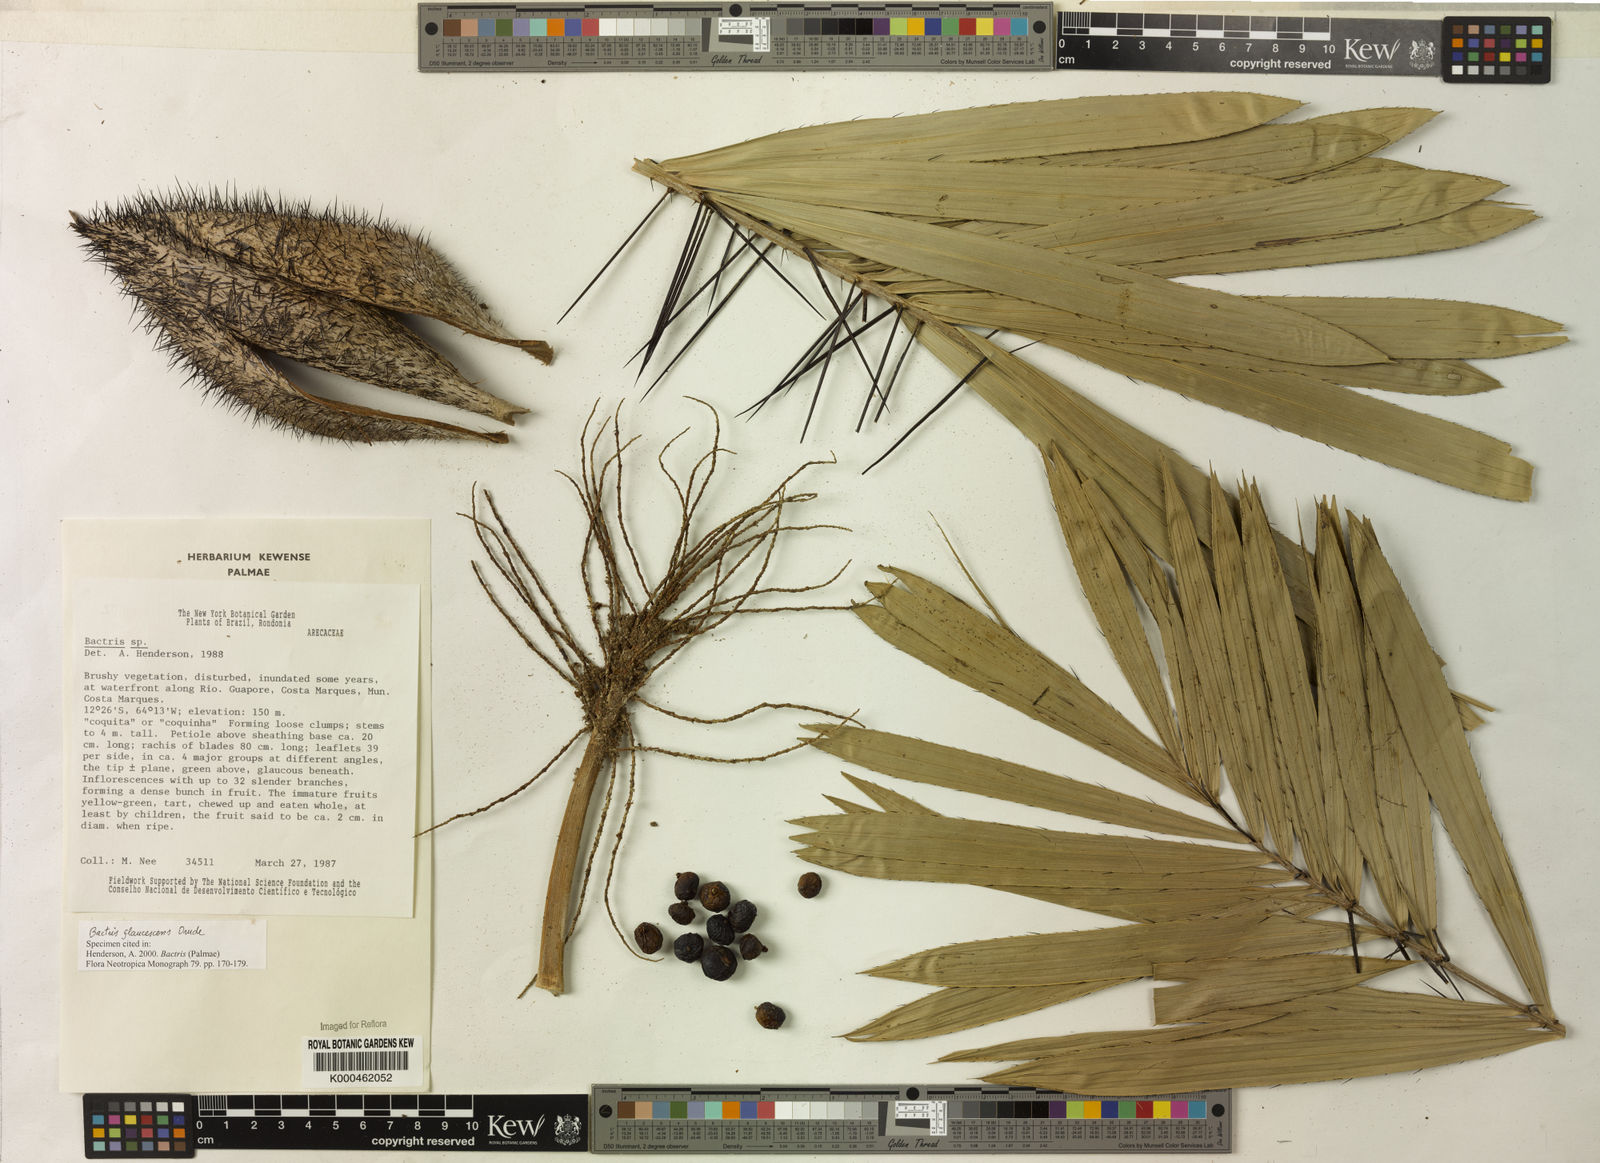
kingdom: Plantae
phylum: Tracheophyta
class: Liliopsida
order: Arecales
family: Arecaceae
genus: Bactris
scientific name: Bactris glaucescens
